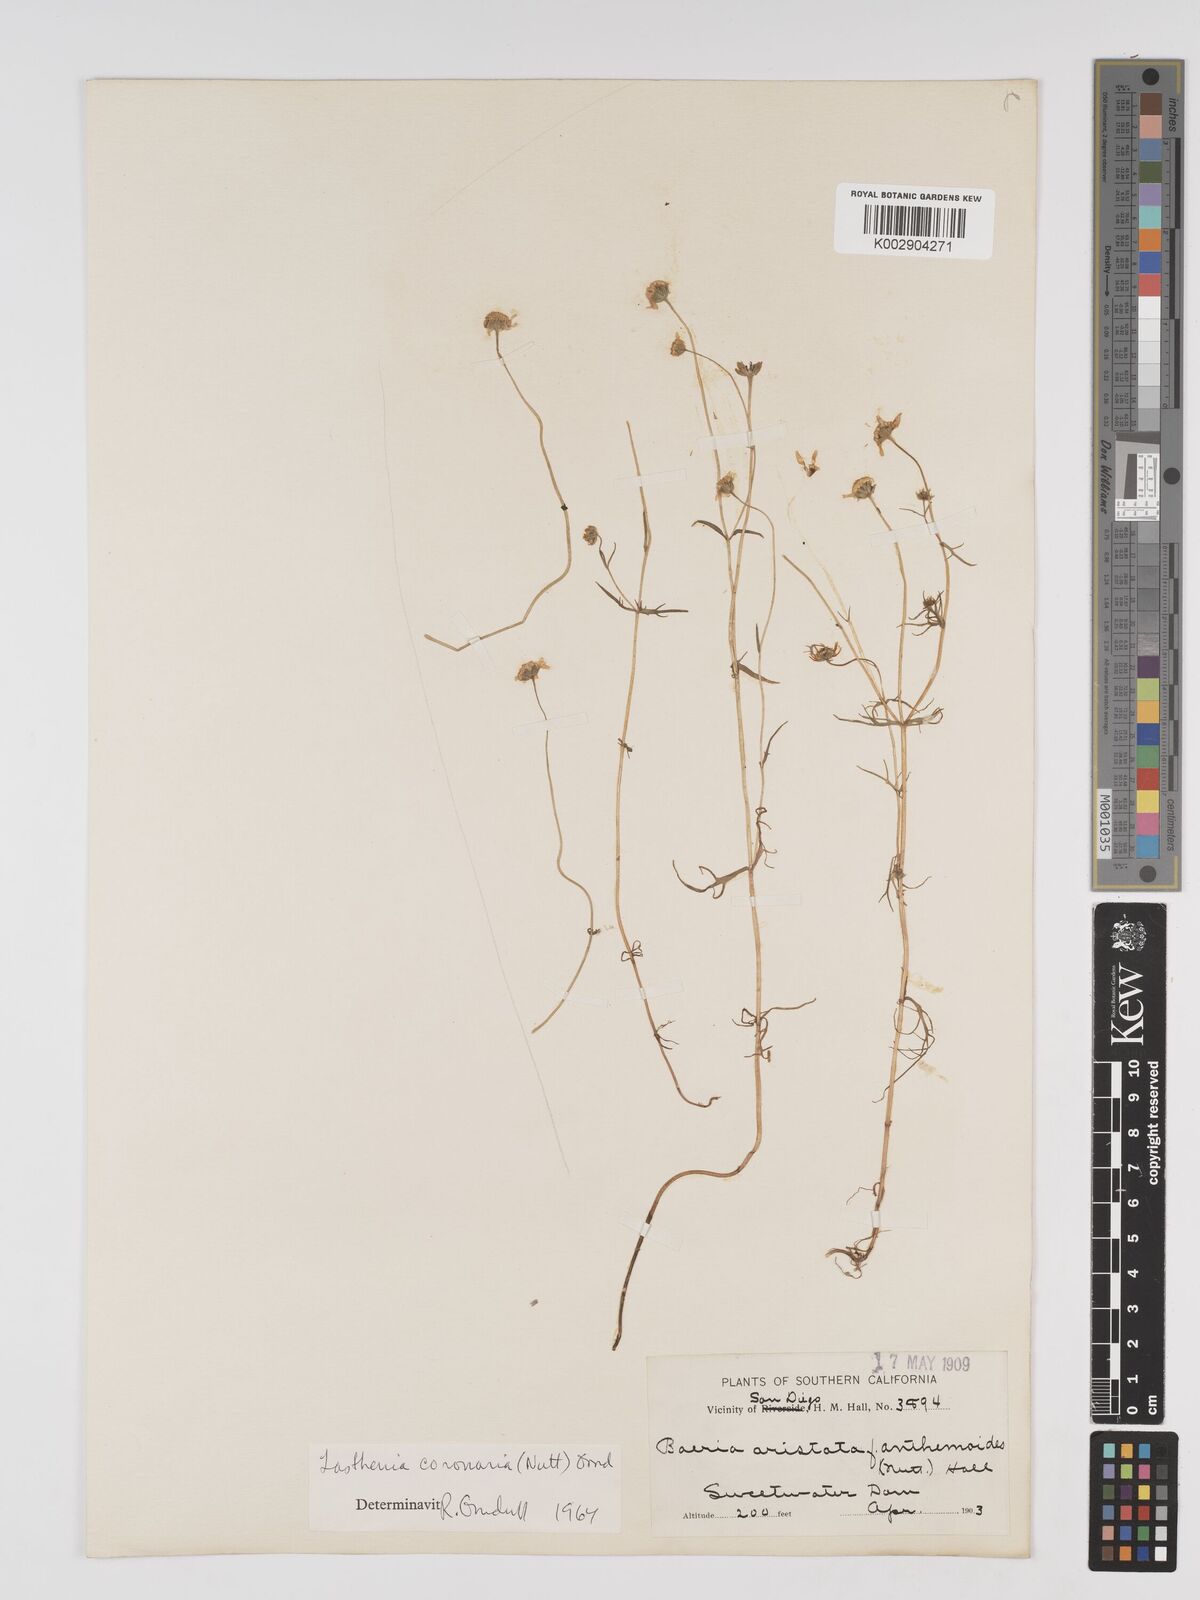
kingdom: Plantae
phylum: Tracheophyta
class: Magnoliopsida
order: Asterales
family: Asteraceae
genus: Lasthenia
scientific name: Lasthenia coronaria
